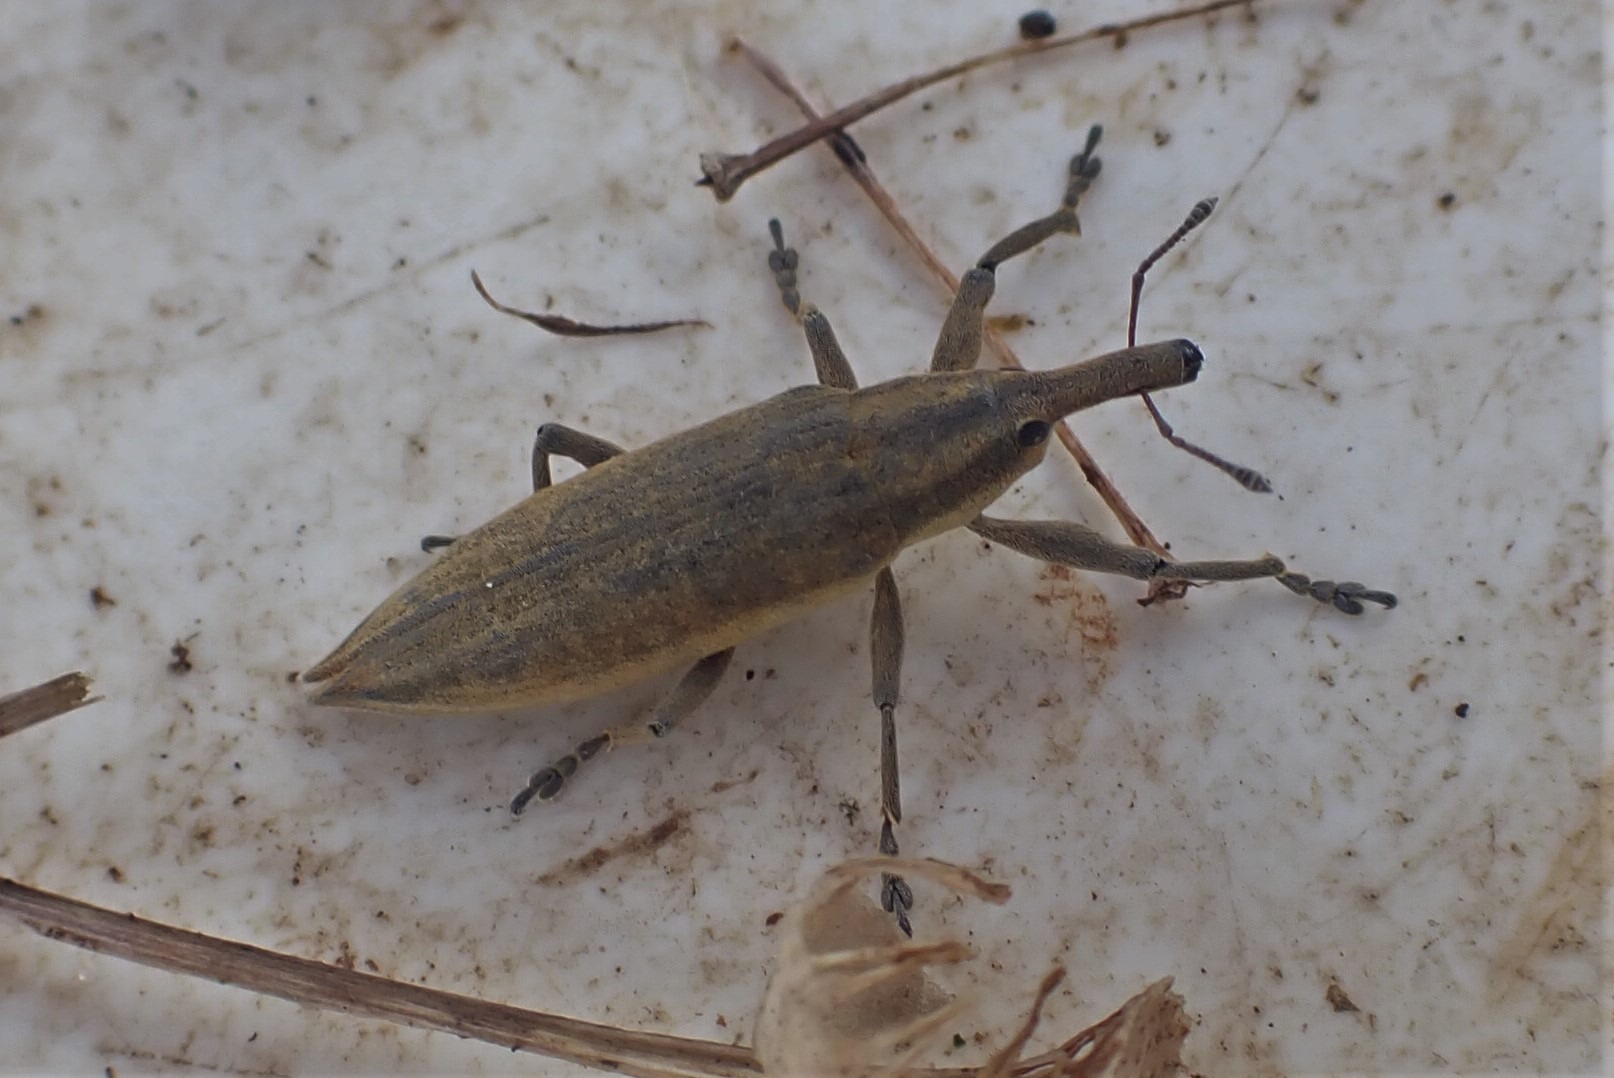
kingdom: Animalia
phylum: Arthropoda
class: Insecta
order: Coleoptera
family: Curculionidae
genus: Lixus
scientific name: Lixus iridis
